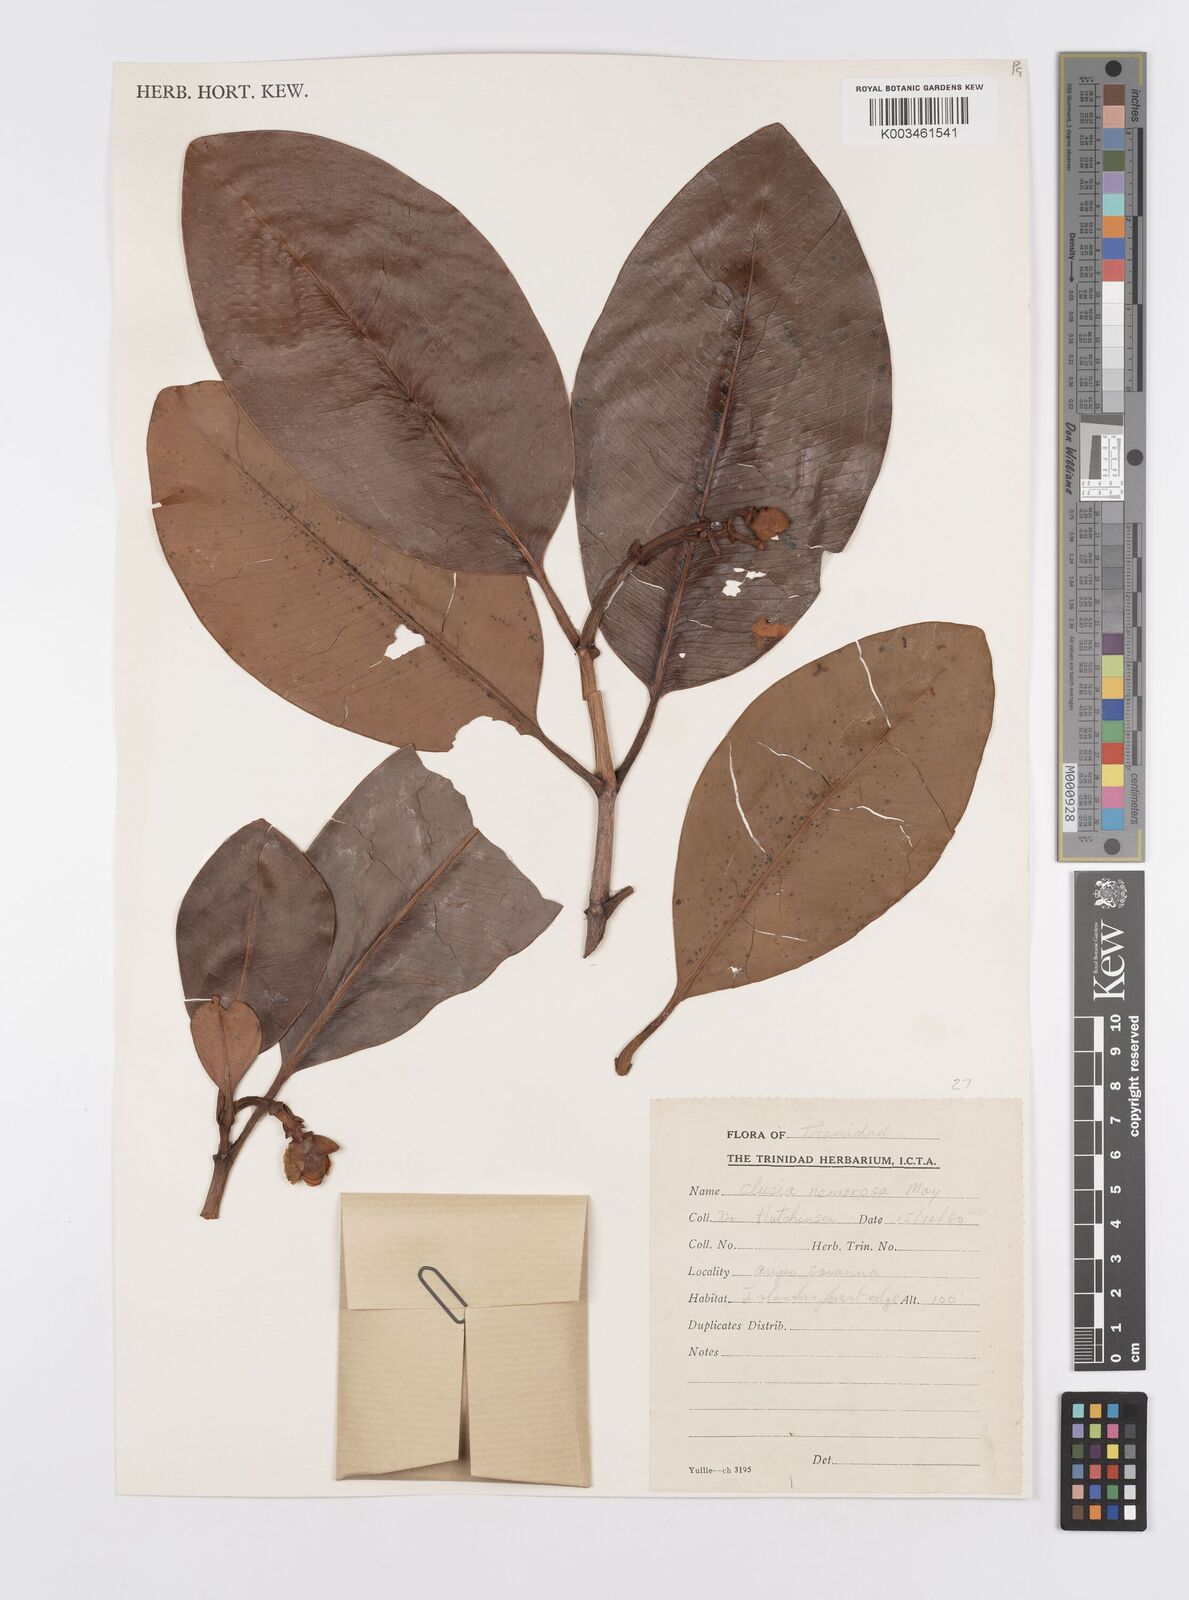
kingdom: Plantae
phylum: Tracheophyta
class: Magnoliopsida
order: Malpighiales
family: Clusiaceae
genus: Clusia
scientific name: Clusia nemorosa
